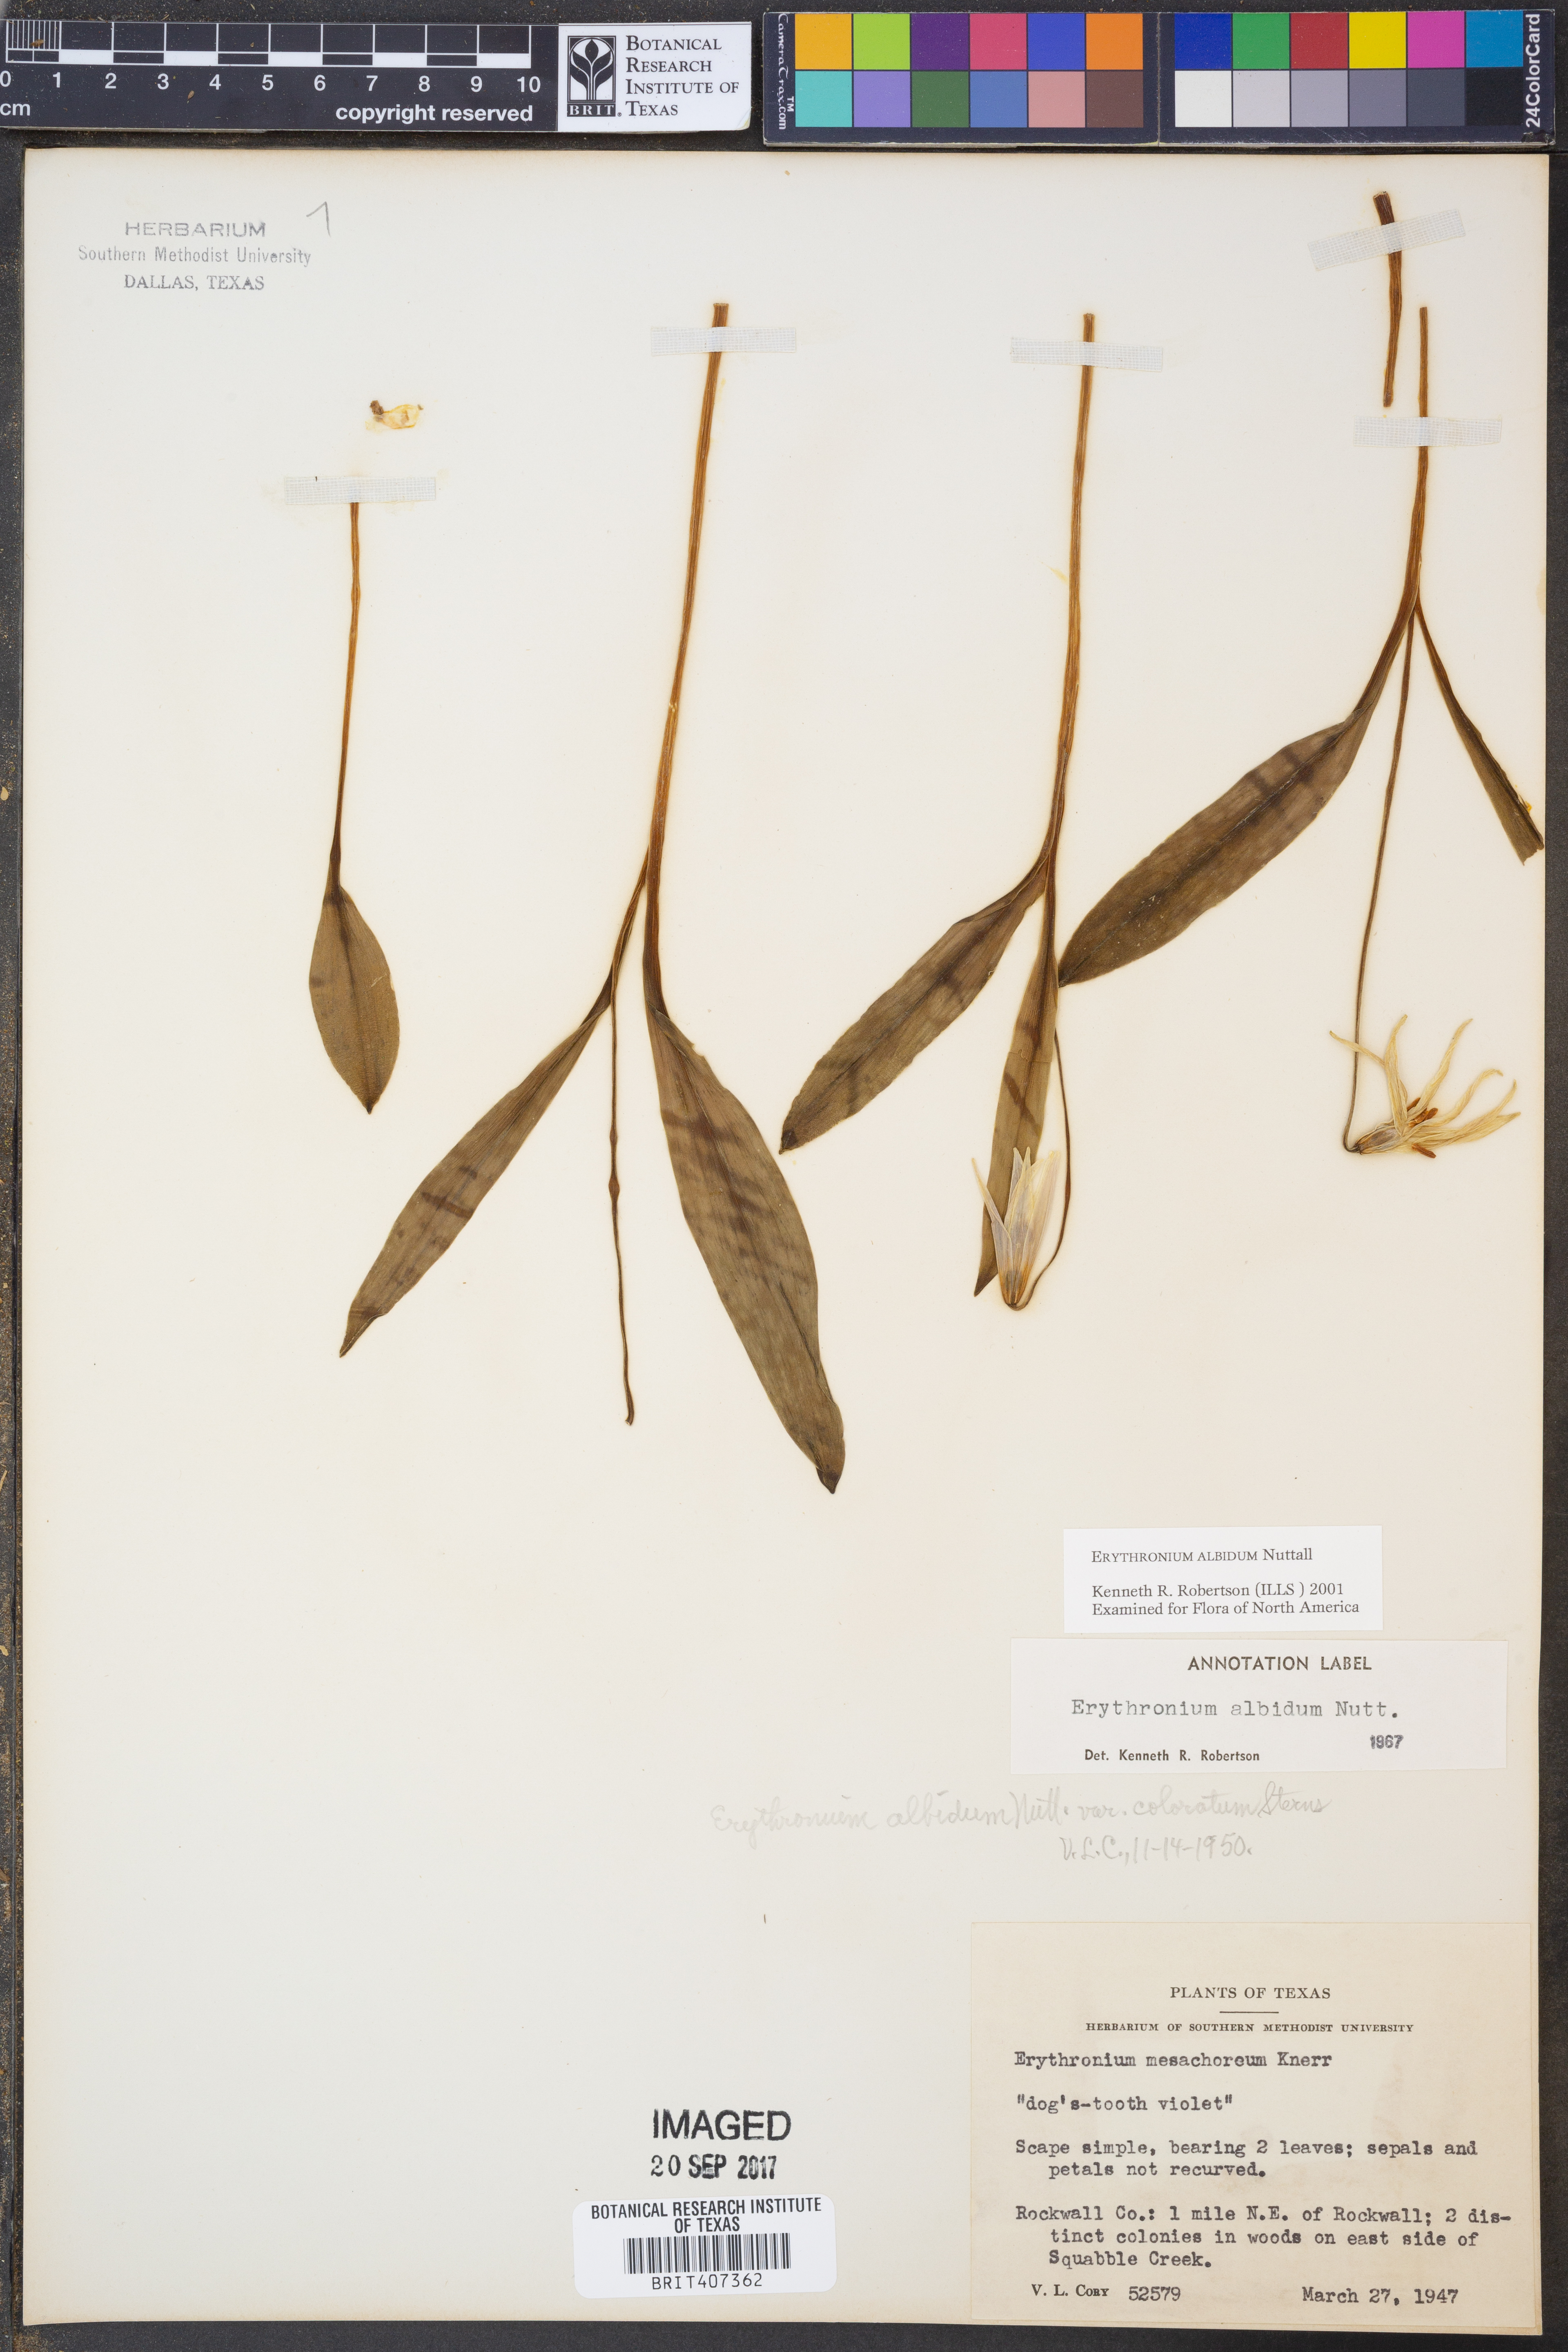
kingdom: Plantae
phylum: Tracheophyta
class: Liliopsida
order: Liliales
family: Liliaceae
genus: Erythronium
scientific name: Erythronium albidum
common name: White trout-lily
